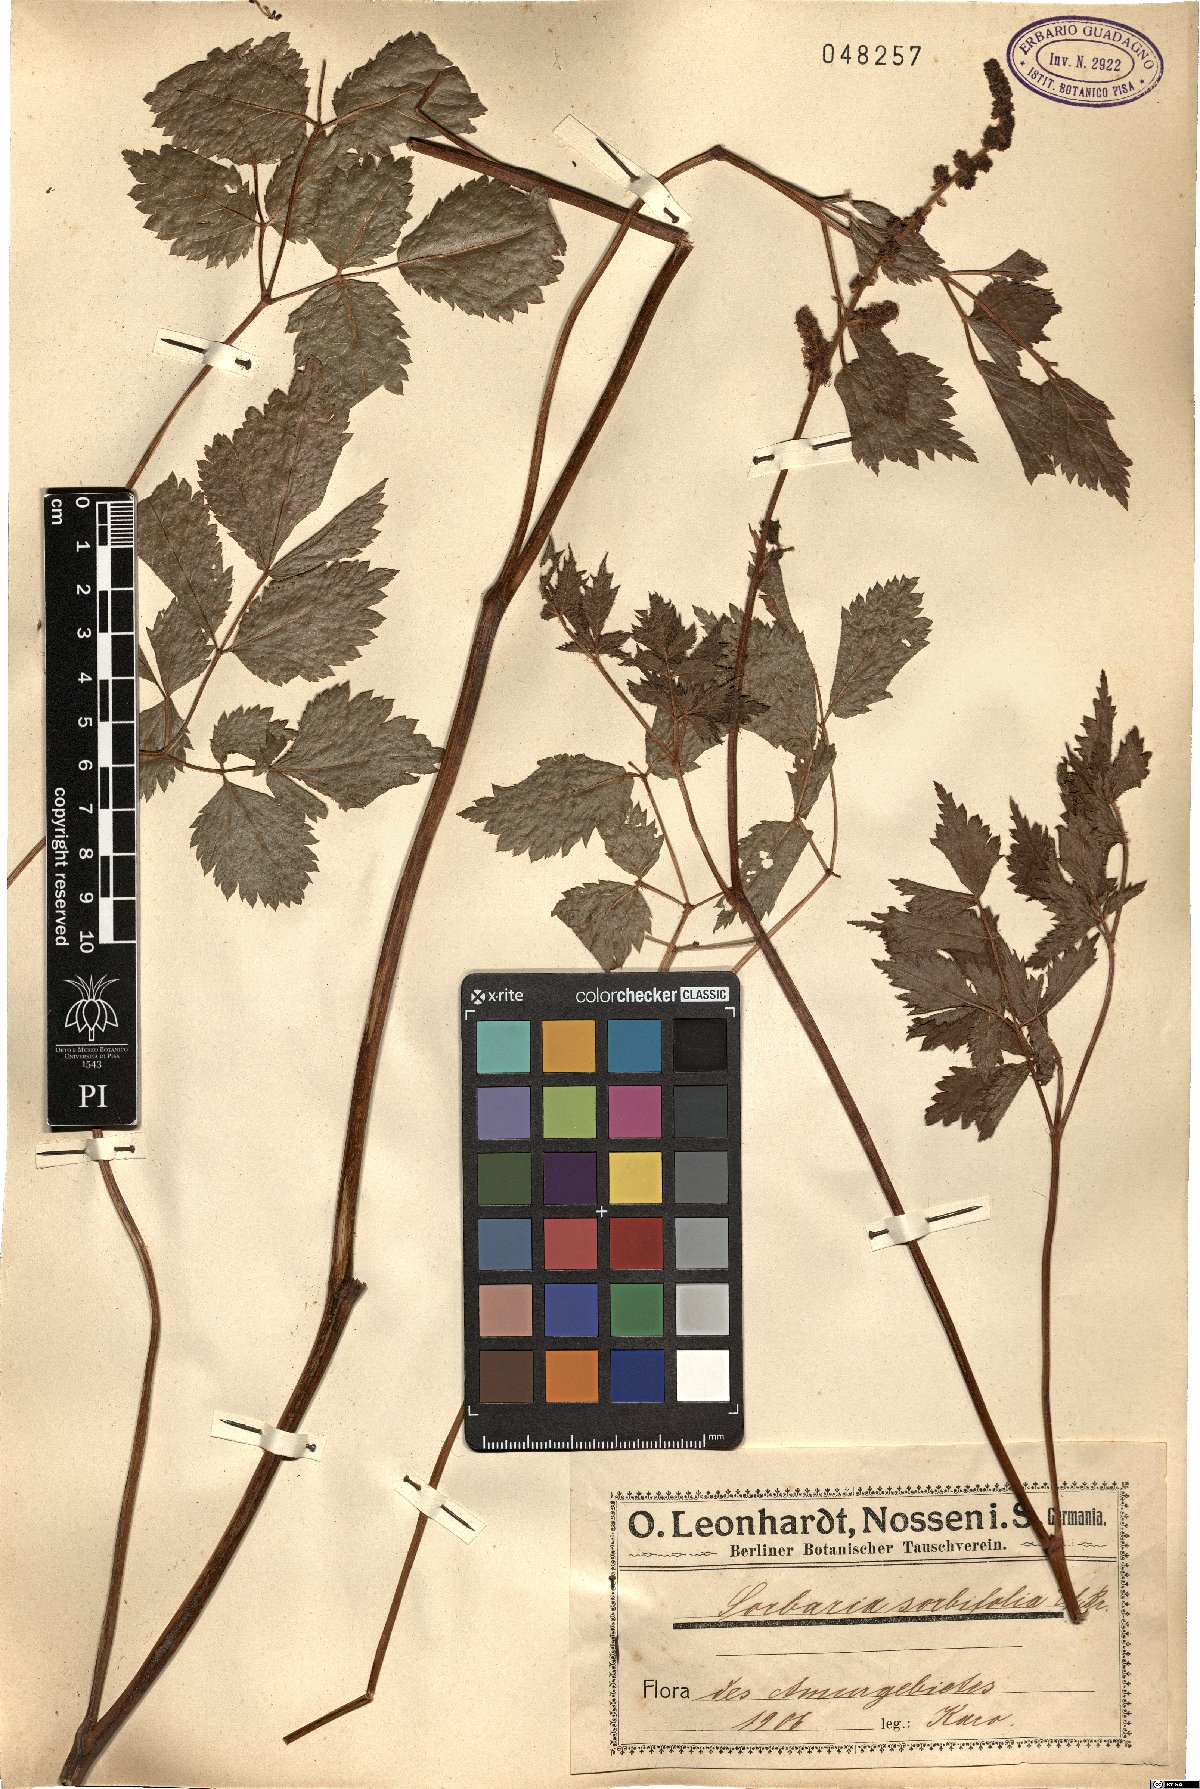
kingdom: Plantae
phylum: Tracheophyta
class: Magnoliopsida
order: Rosales
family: Rosaceae
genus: Sorbaria
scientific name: Sorbaria sorbifolia
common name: False spiraea
